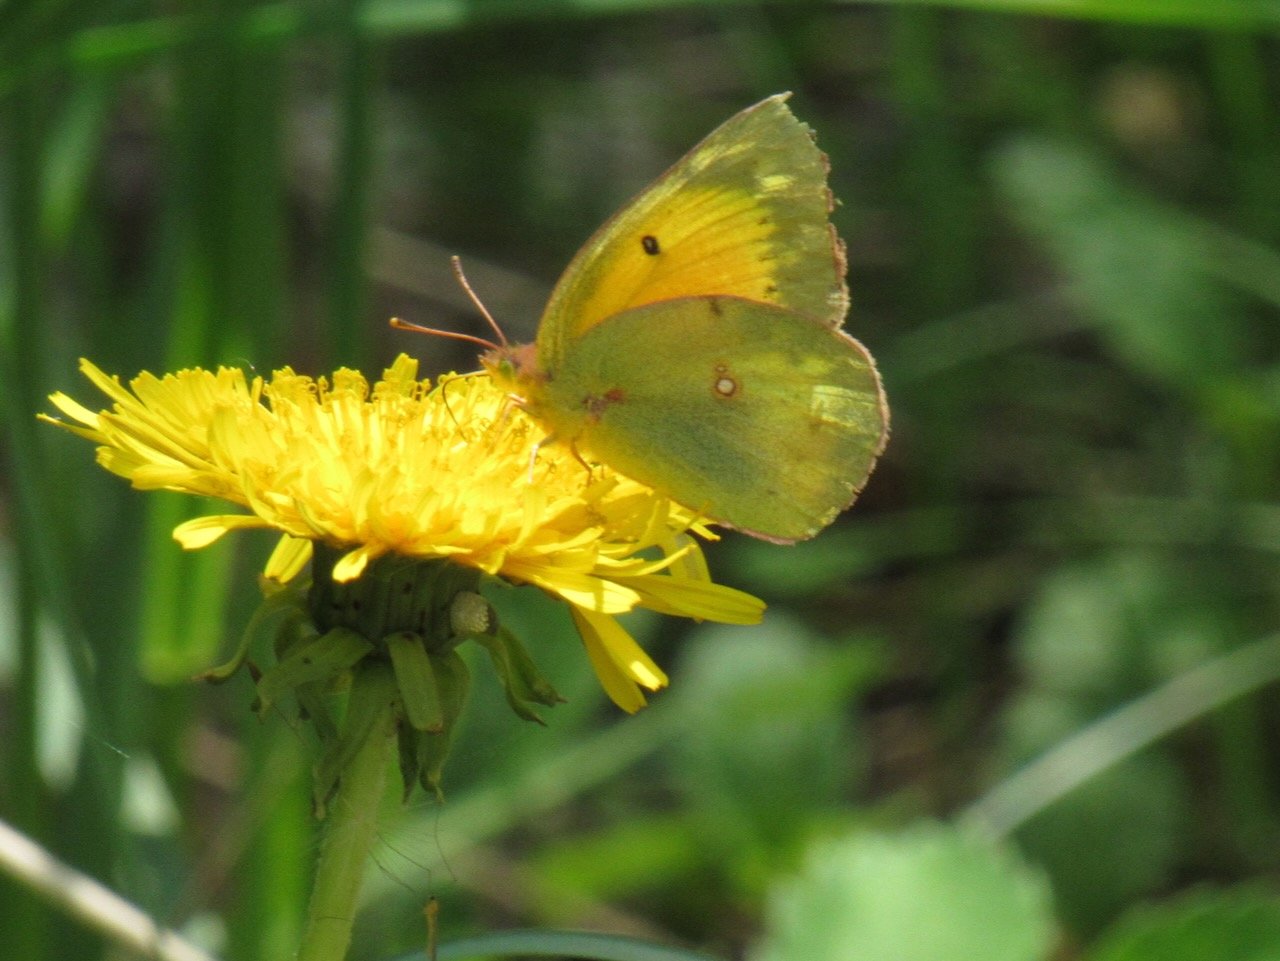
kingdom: Animalia
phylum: Arthropoda
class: Insecta
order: Lepidoptera
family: Pieridae
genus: Colias
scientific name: Colias eurytheme
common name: Orange Sulphur
